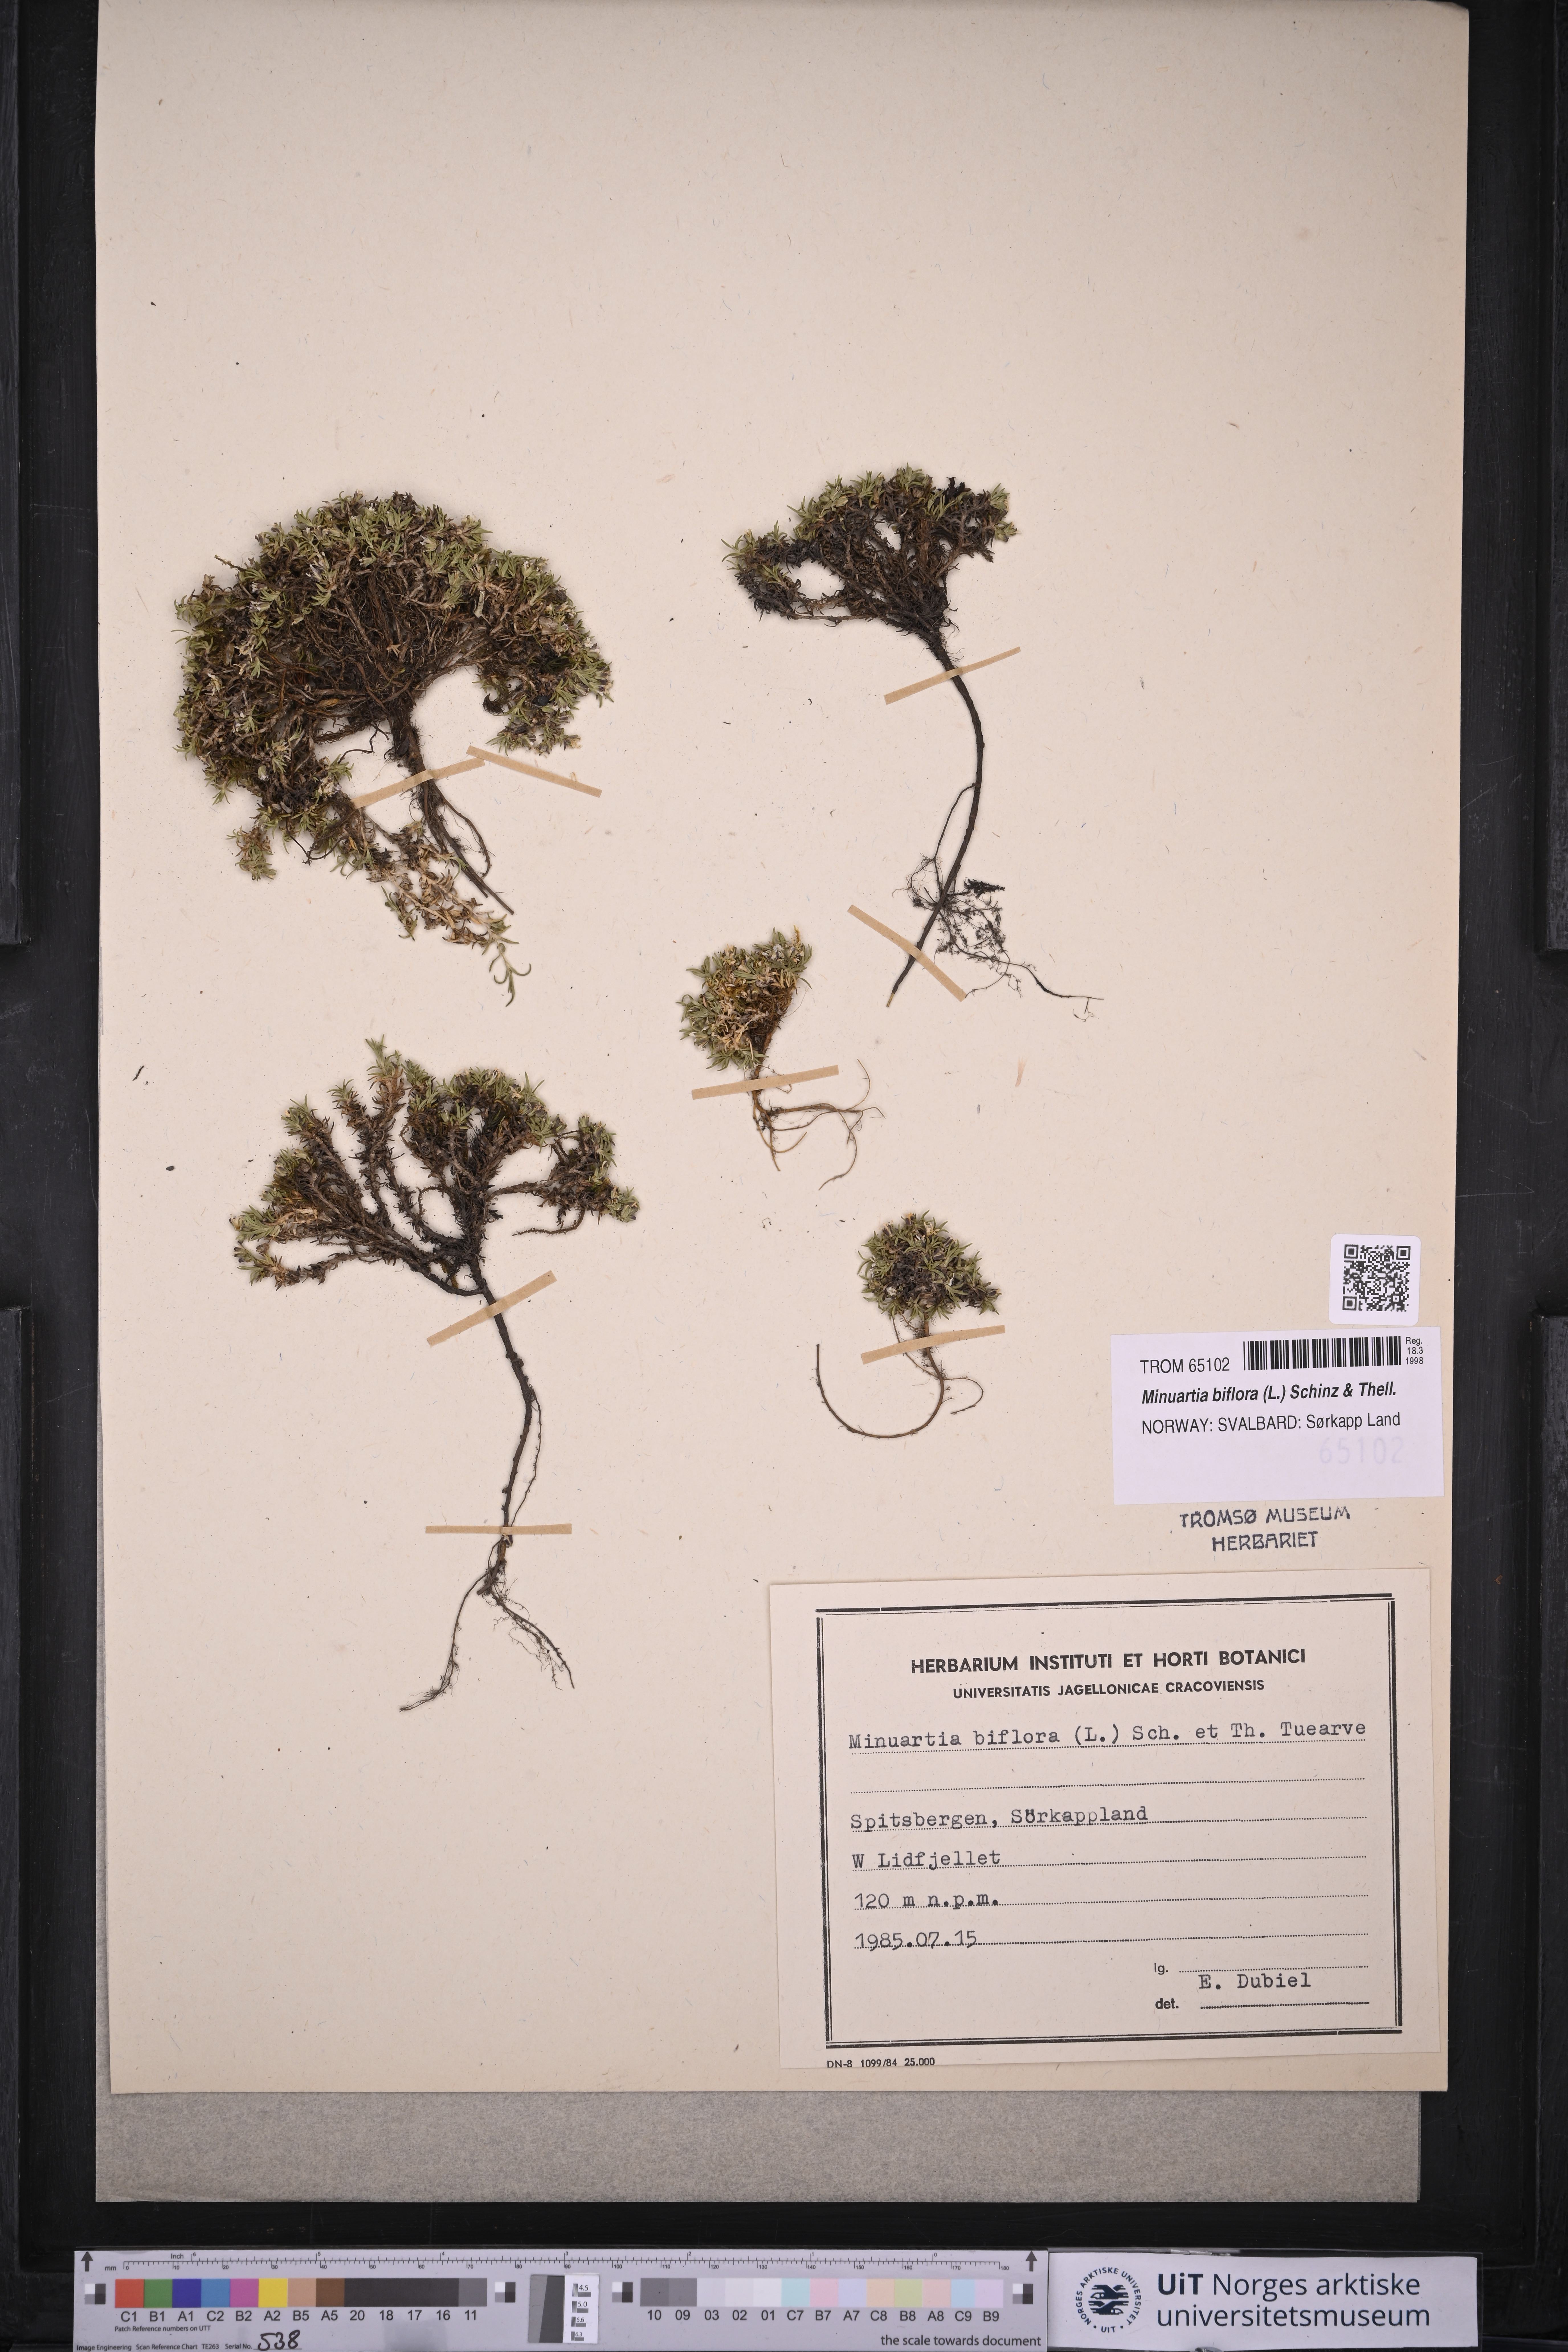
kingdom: Plantae
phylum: Tracheophyta
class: Magnoliopsida
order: Caryophyllales
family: Caryophyllaceae
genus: Cherleria
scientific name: Cherleria biflora
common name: Mountain sandwort
